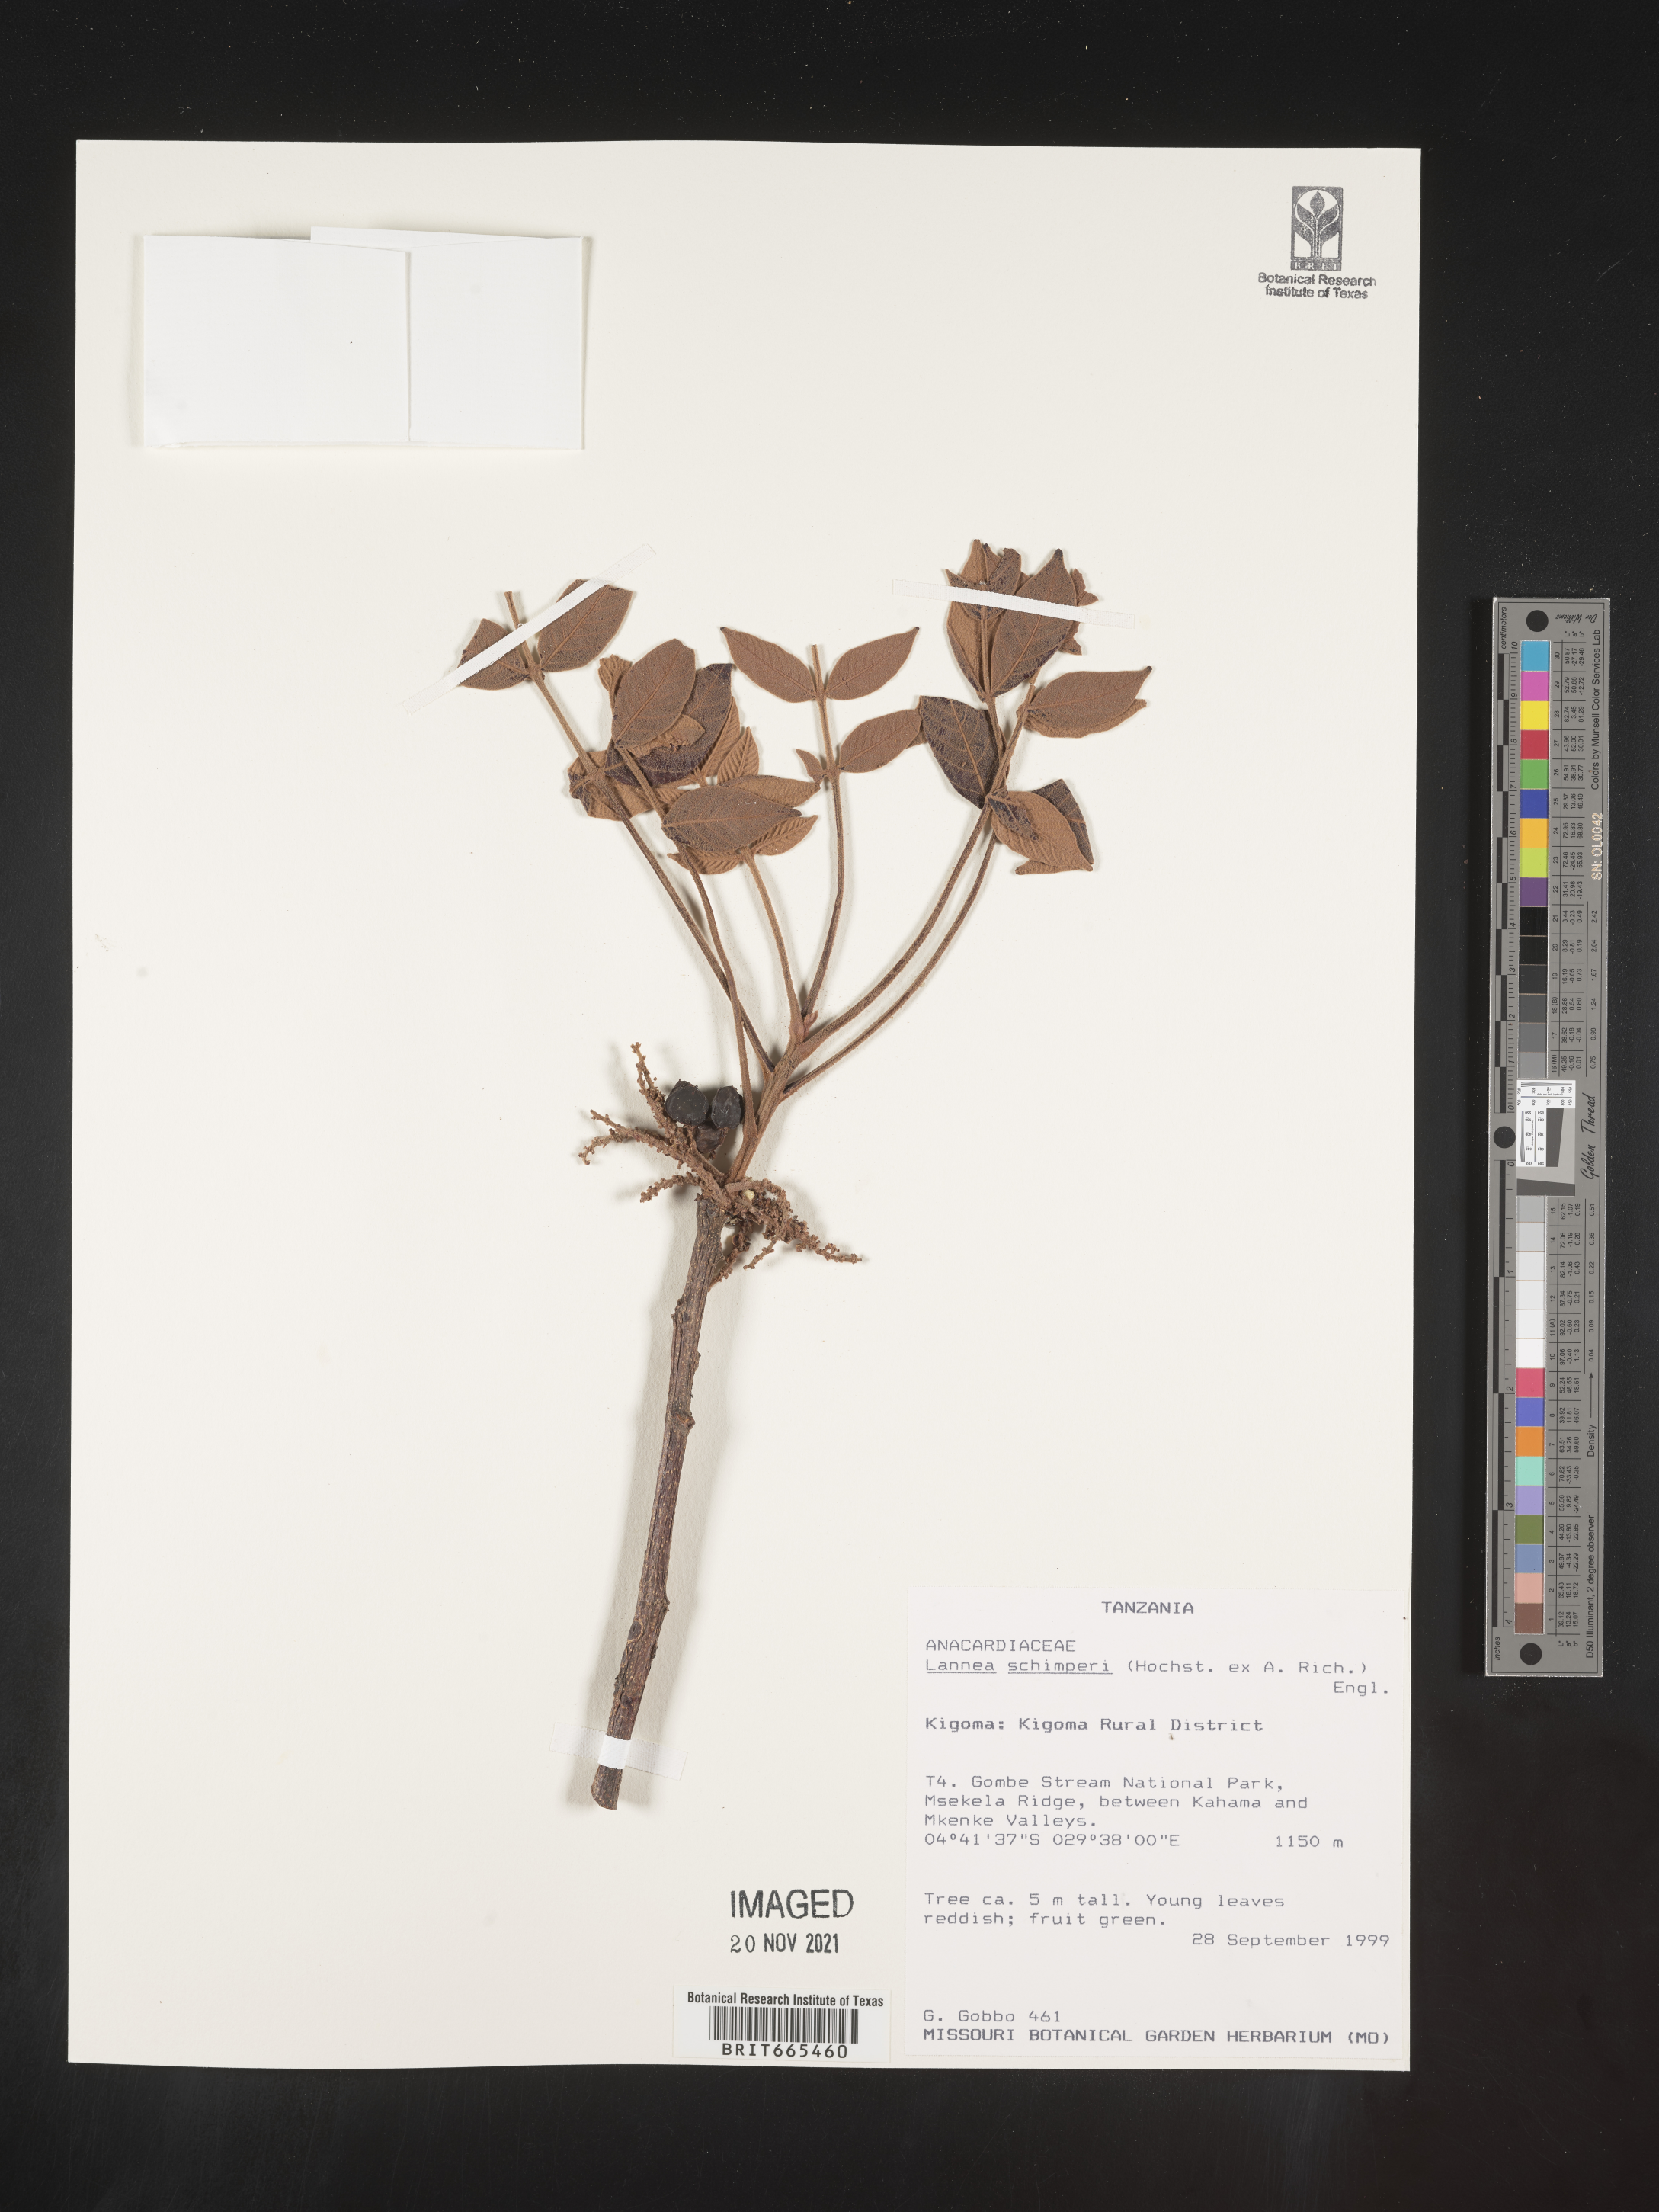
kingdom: Plantae
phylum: Tracheophyta
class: Magnoliopsida
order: Sapindales
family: Anacardiaceae
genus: Lannea
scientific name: Lannea
